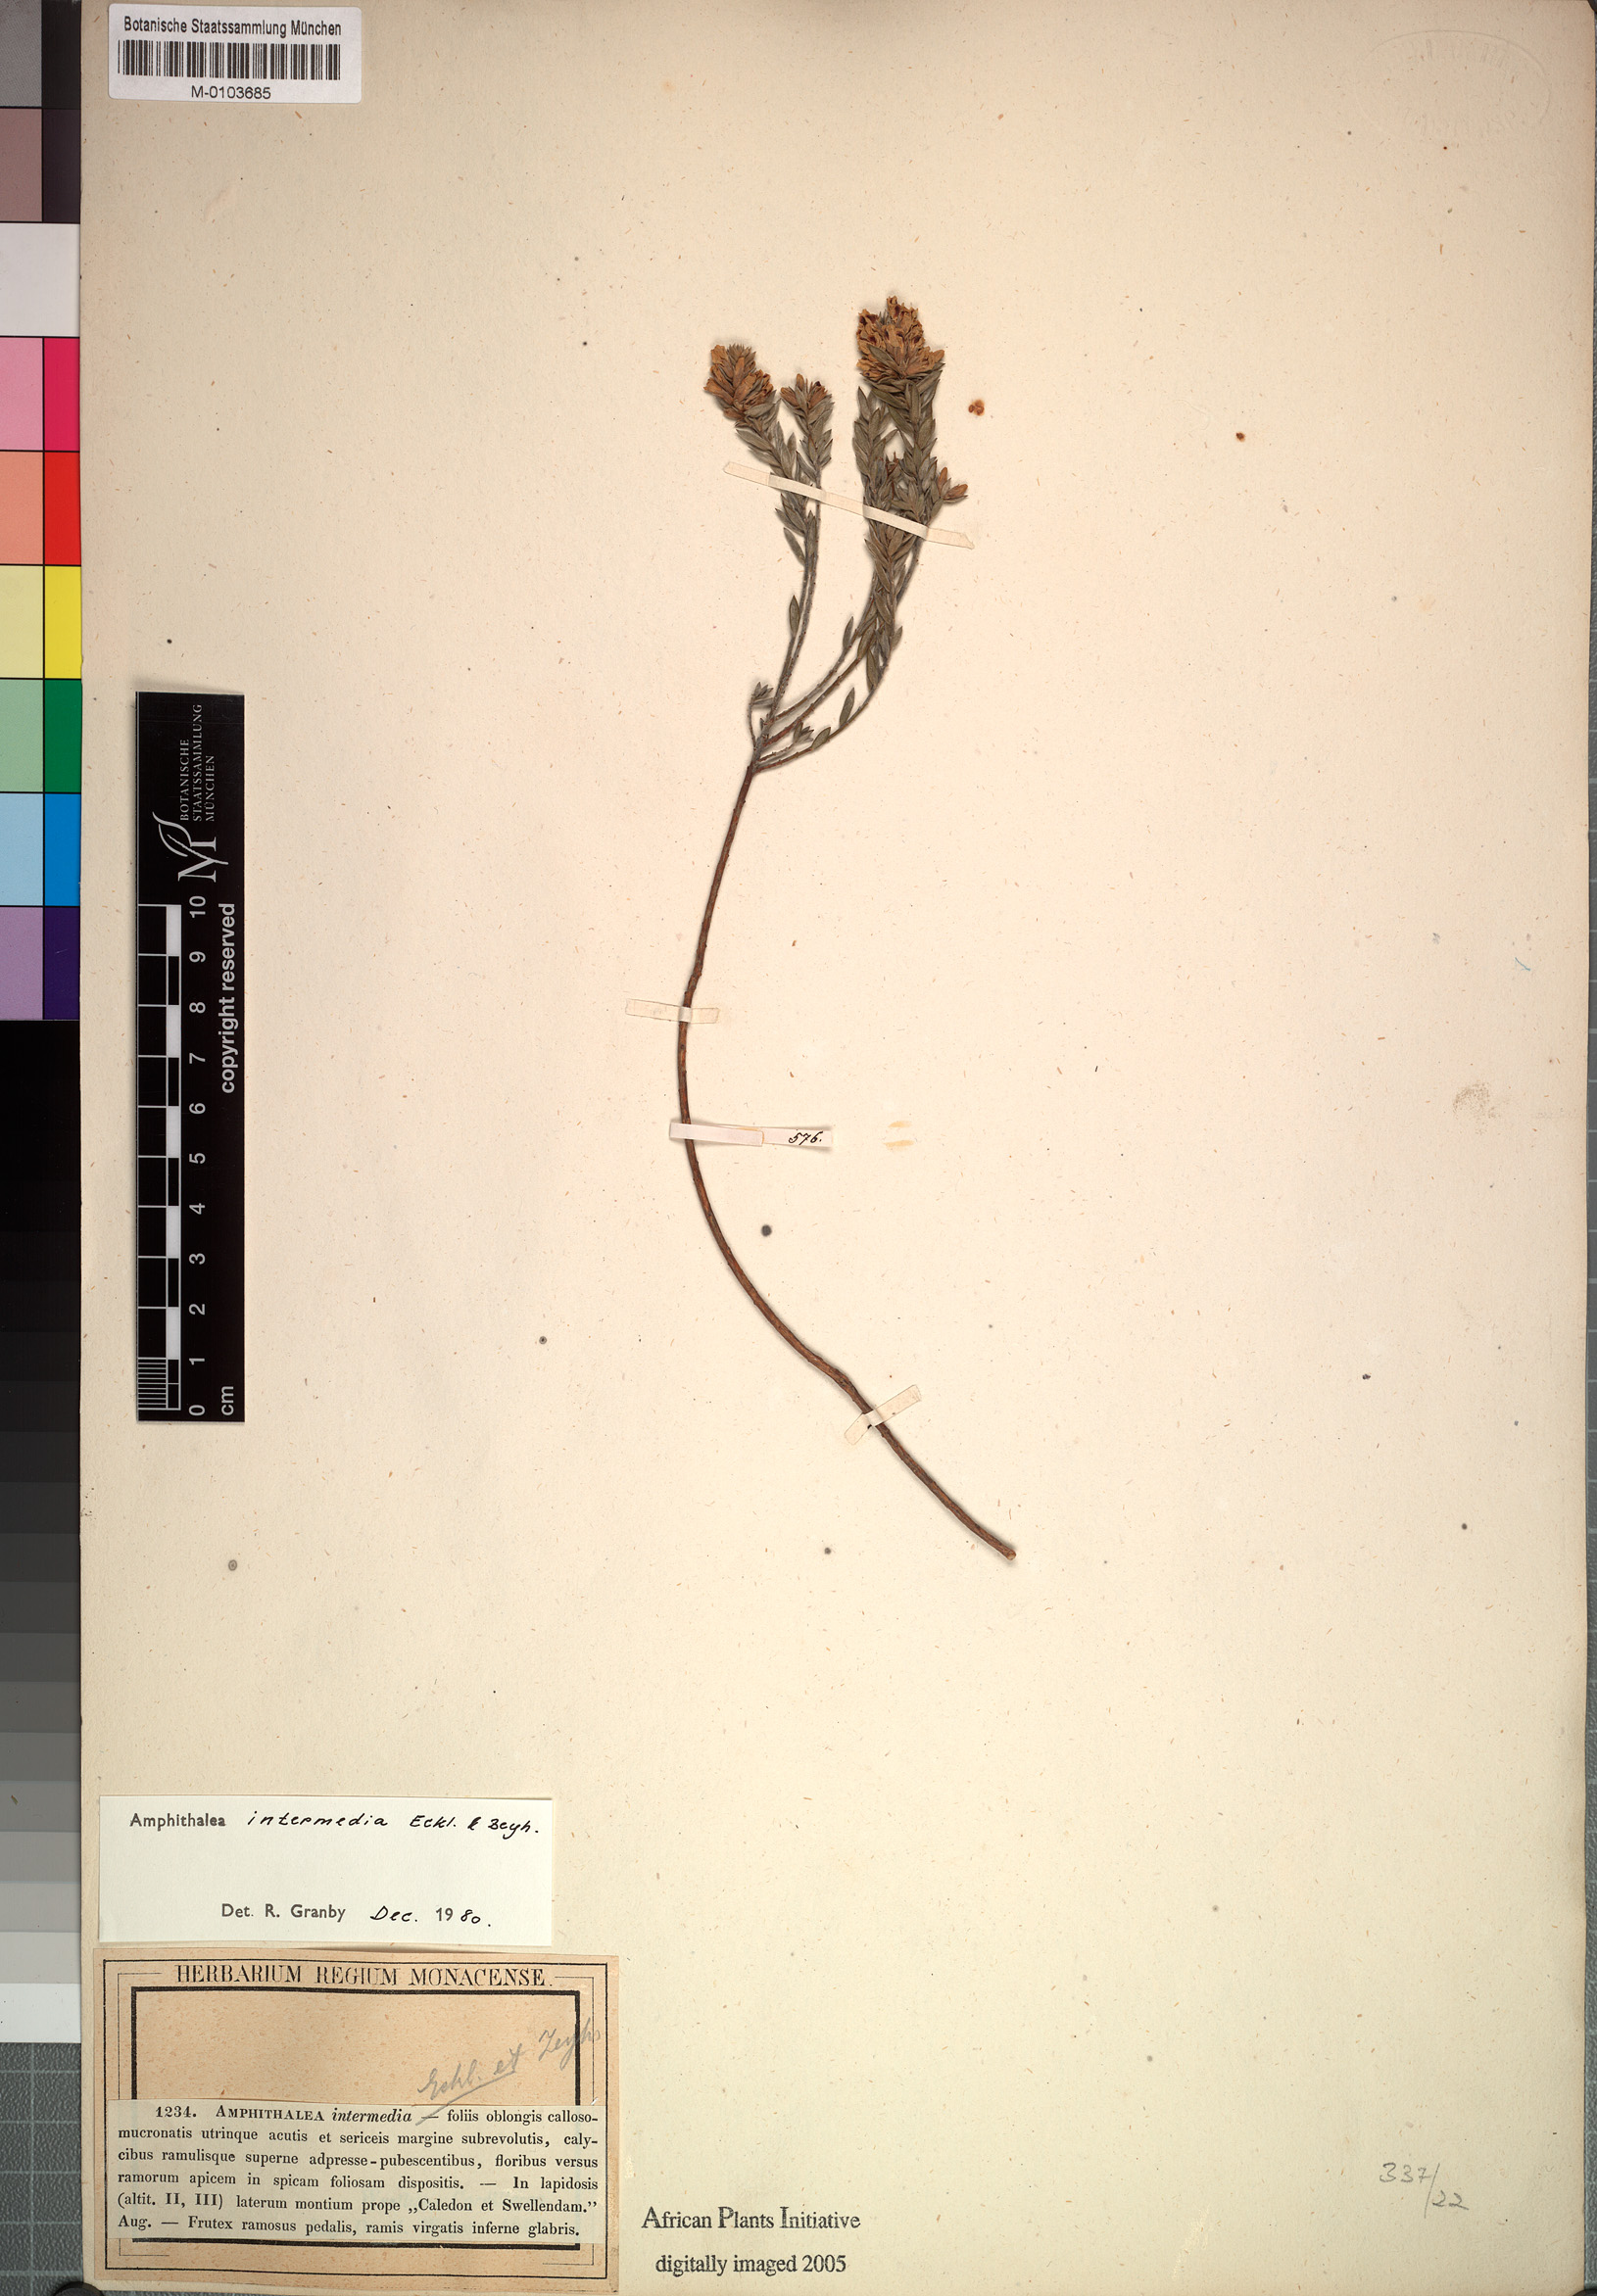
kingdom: Plantae
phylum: Tracheophyta
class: Magnoliopsida
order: Fabales
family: Fabaceae
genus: Amphithalea
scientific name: Amphithalea intermedia
